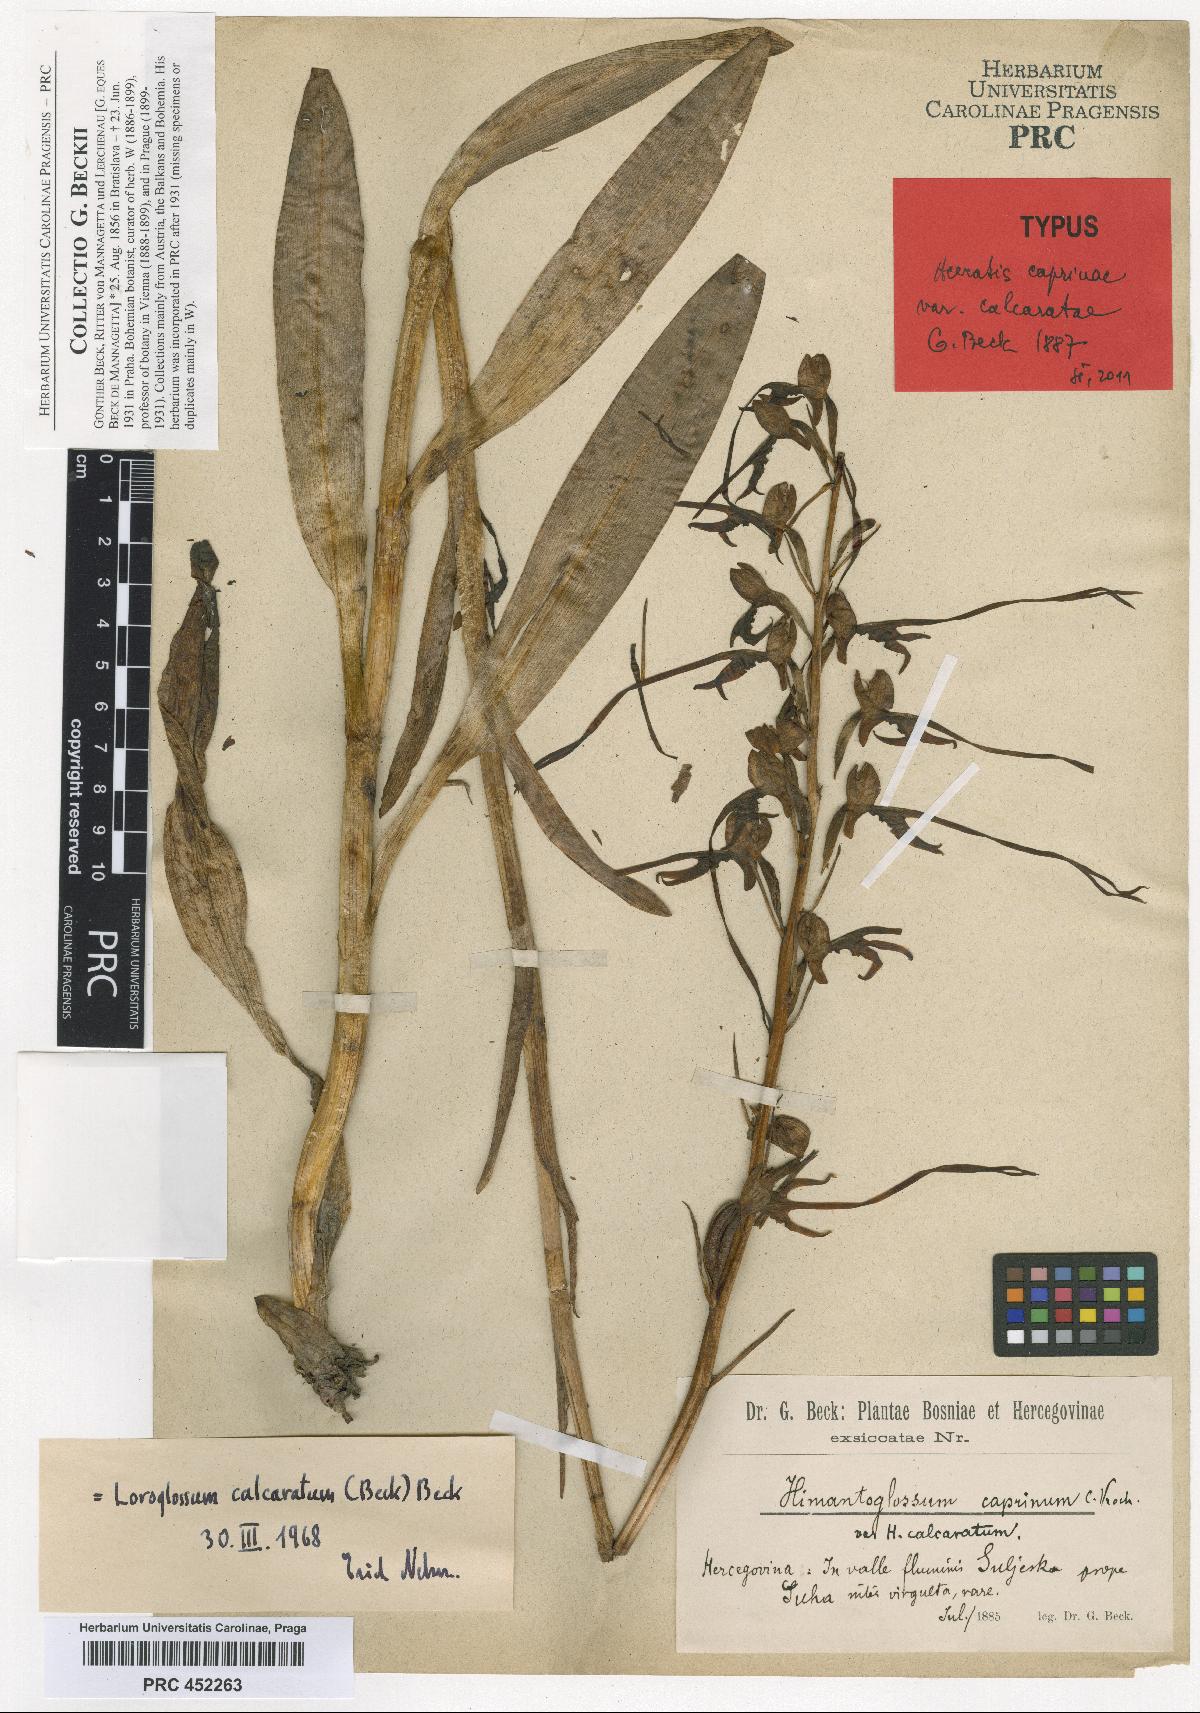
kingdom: Plantae
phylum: Tracheophyta
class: Liliopsida
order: Asparagales
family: Orchidaceae
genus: Himantoglossum
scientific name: Himantoglossum calcaratum
